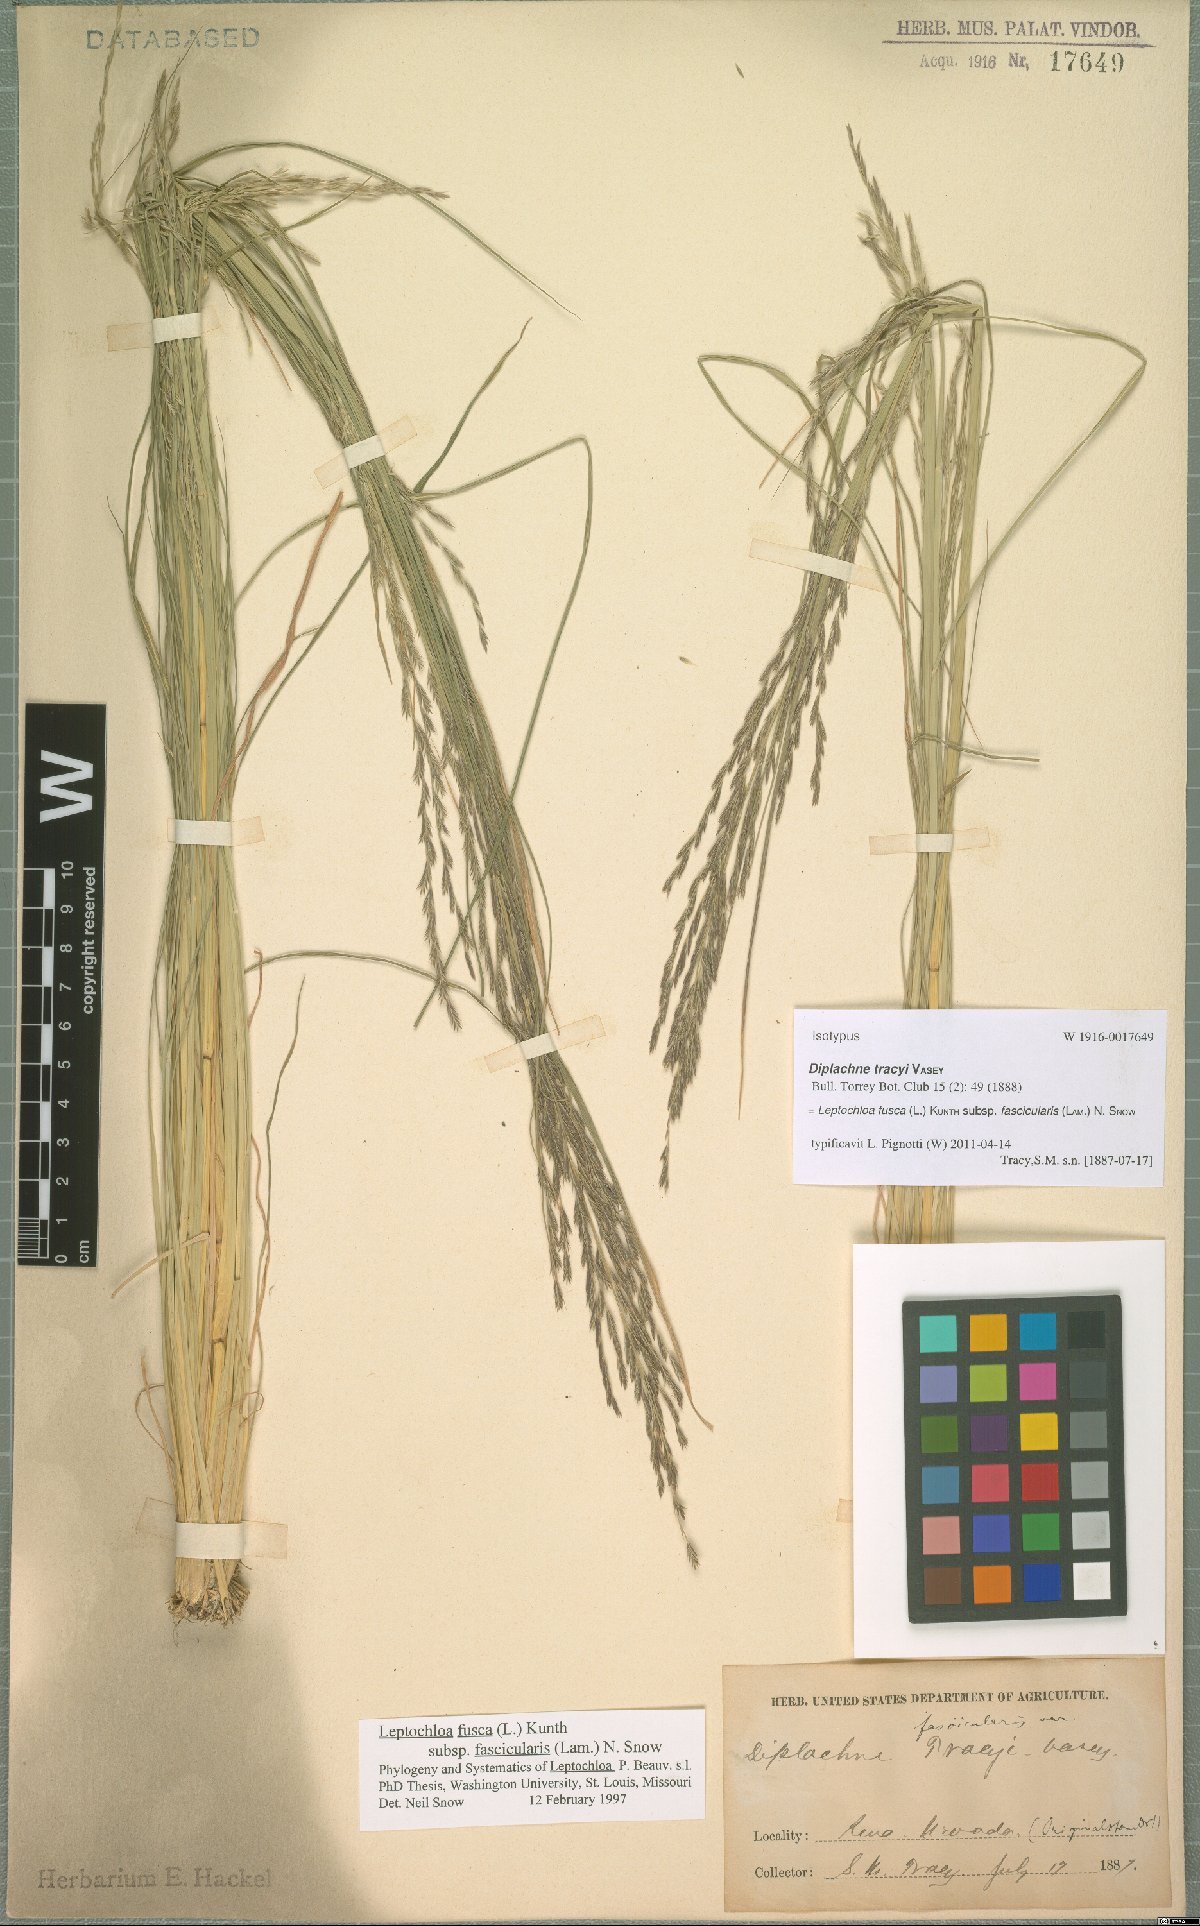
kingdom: Plantae
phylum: Tracheophyta
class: Liliopsida
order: Poales
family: Poaceae
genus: Diplachne
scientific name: Diplachne fusca
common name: Brown beetle grass
